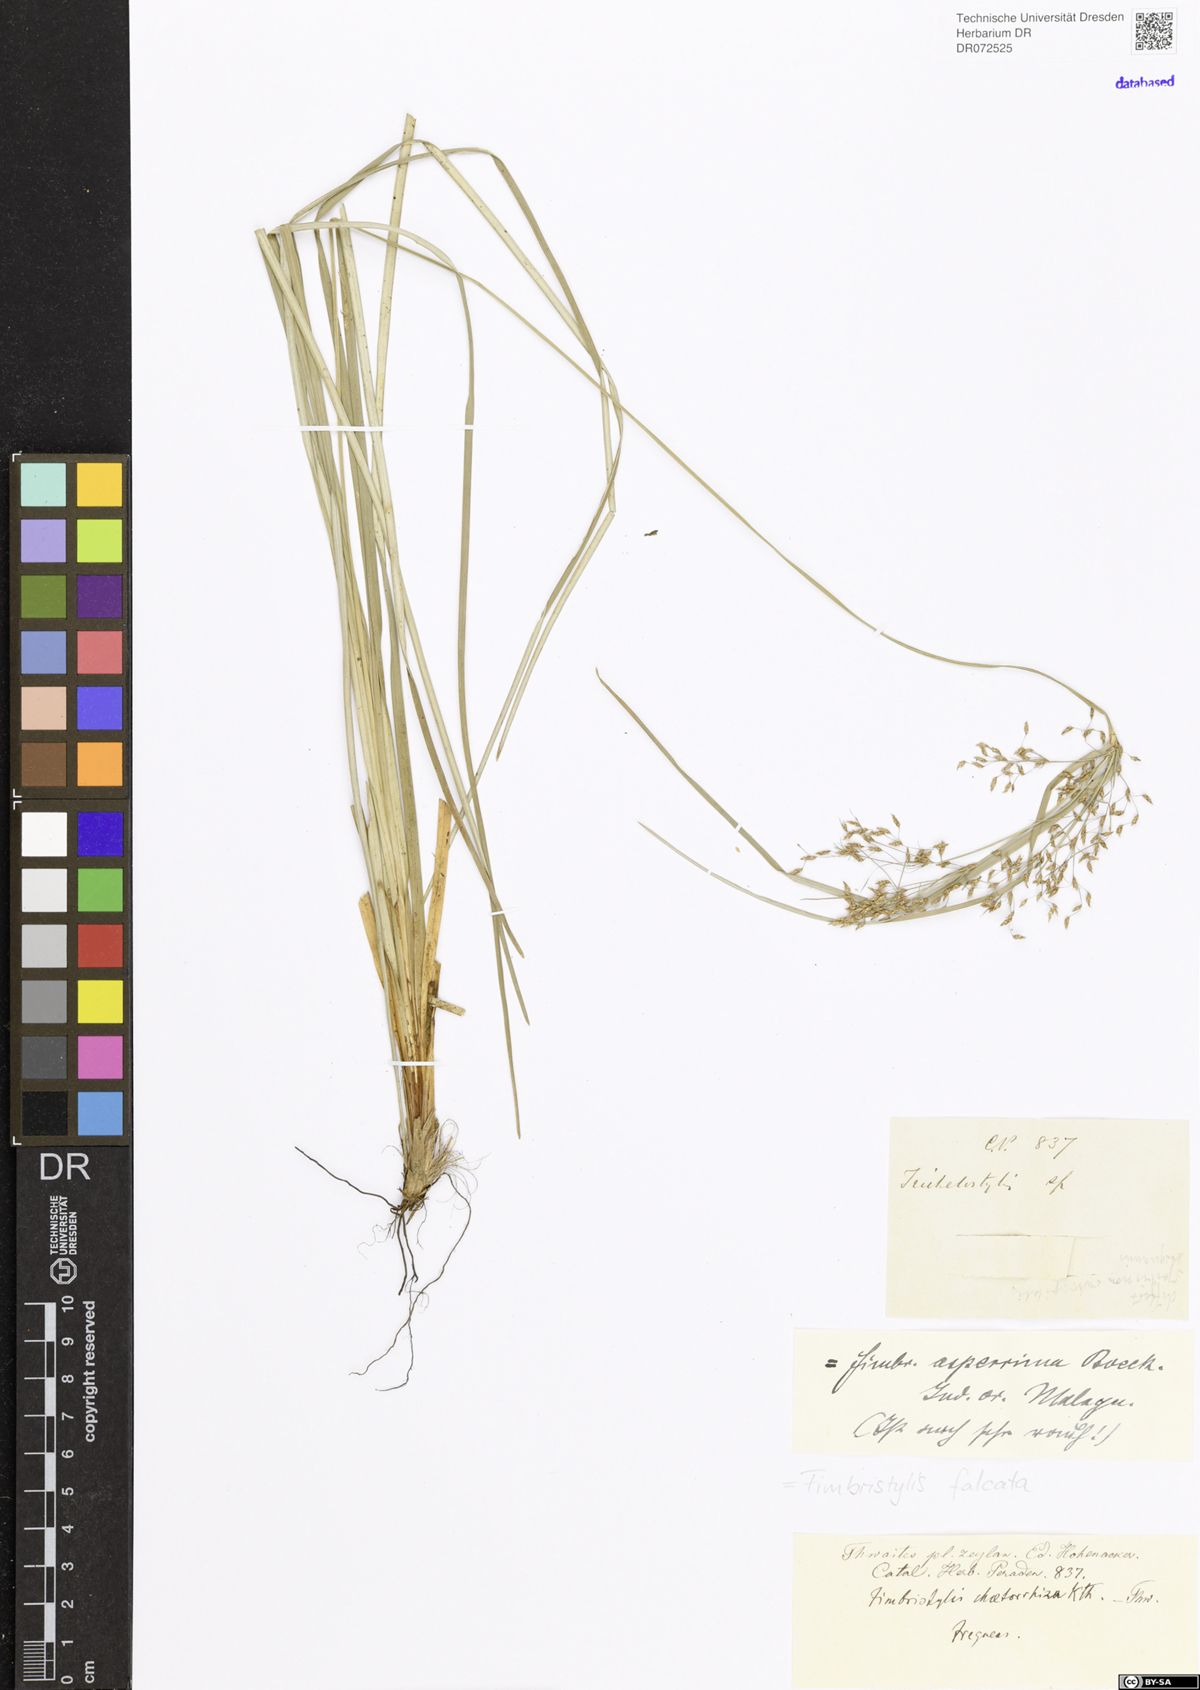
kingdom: Plantae
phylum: Tracheophyta
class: Liliopsida
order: Poales
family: Cyperaceae
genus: Fimbristylis
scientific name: Fimbristylis falcata
